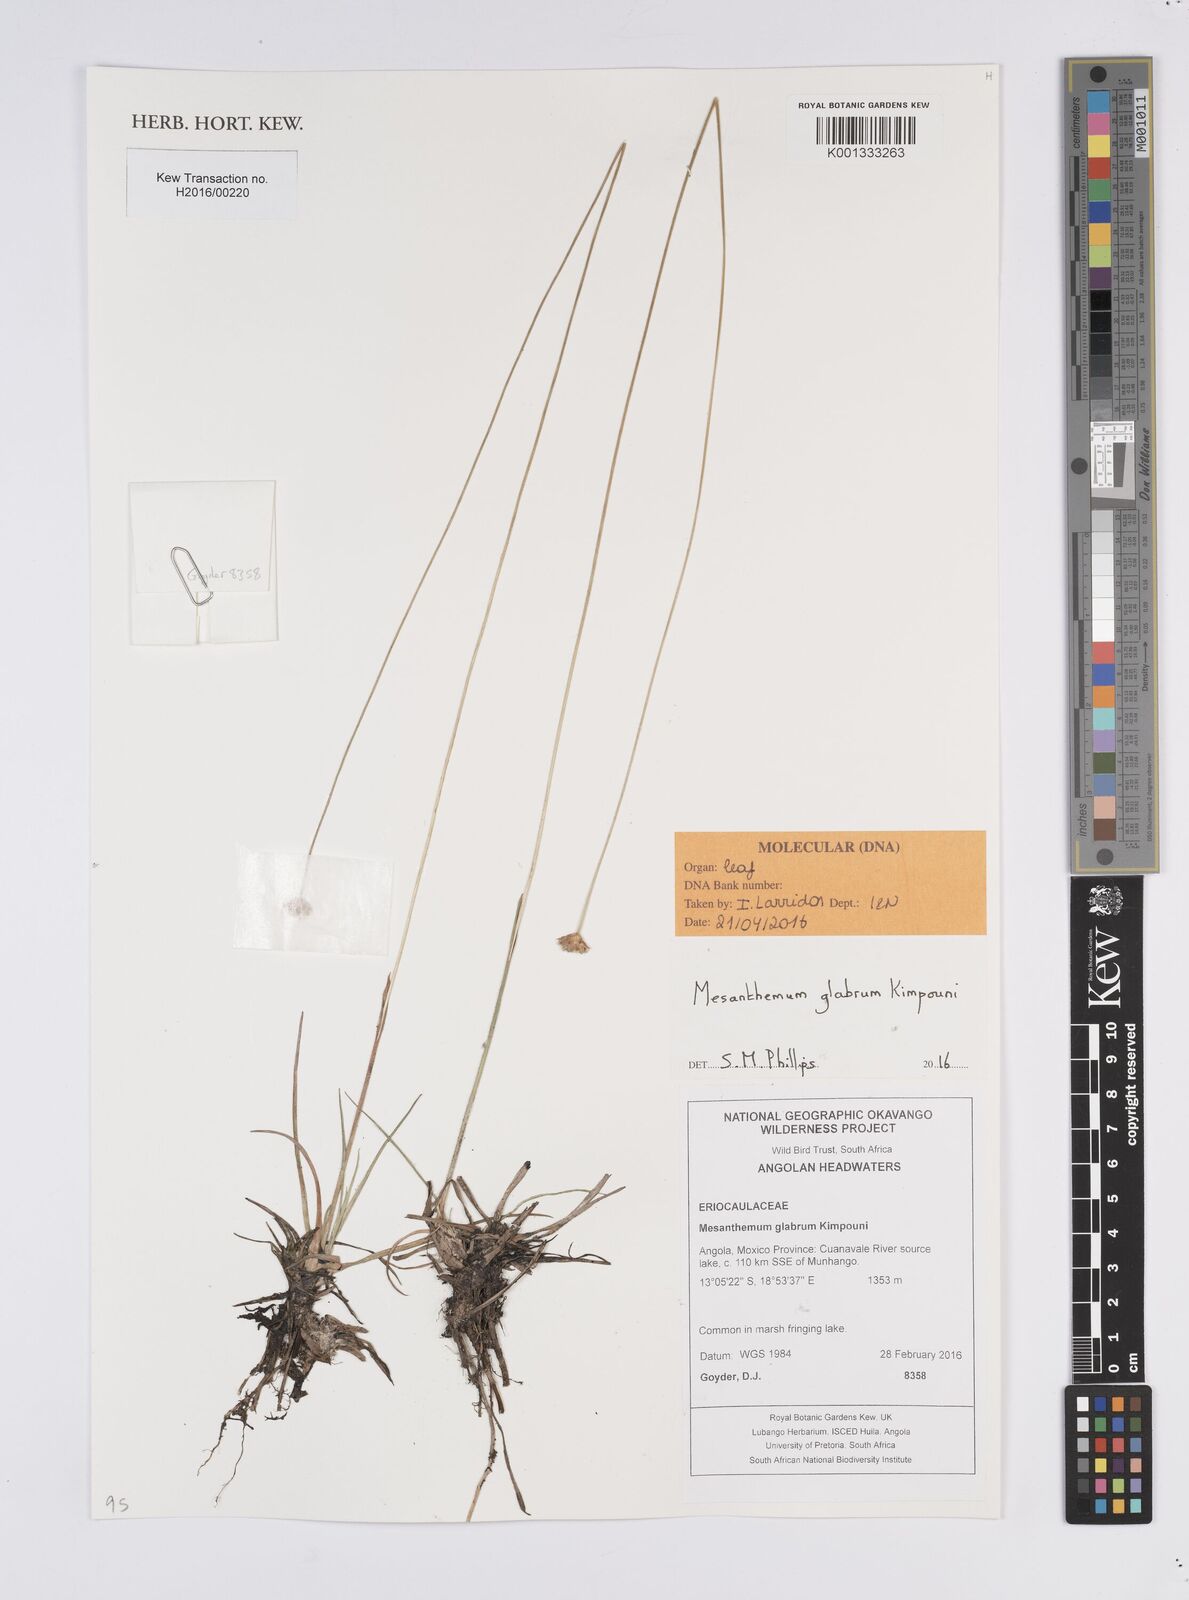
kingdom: Plantae
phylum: Tracheophyta
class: Liliopsida
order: Poales
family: Eriocaulaceae
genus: Mesanthemum
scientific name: Mesanthemum glabrum
